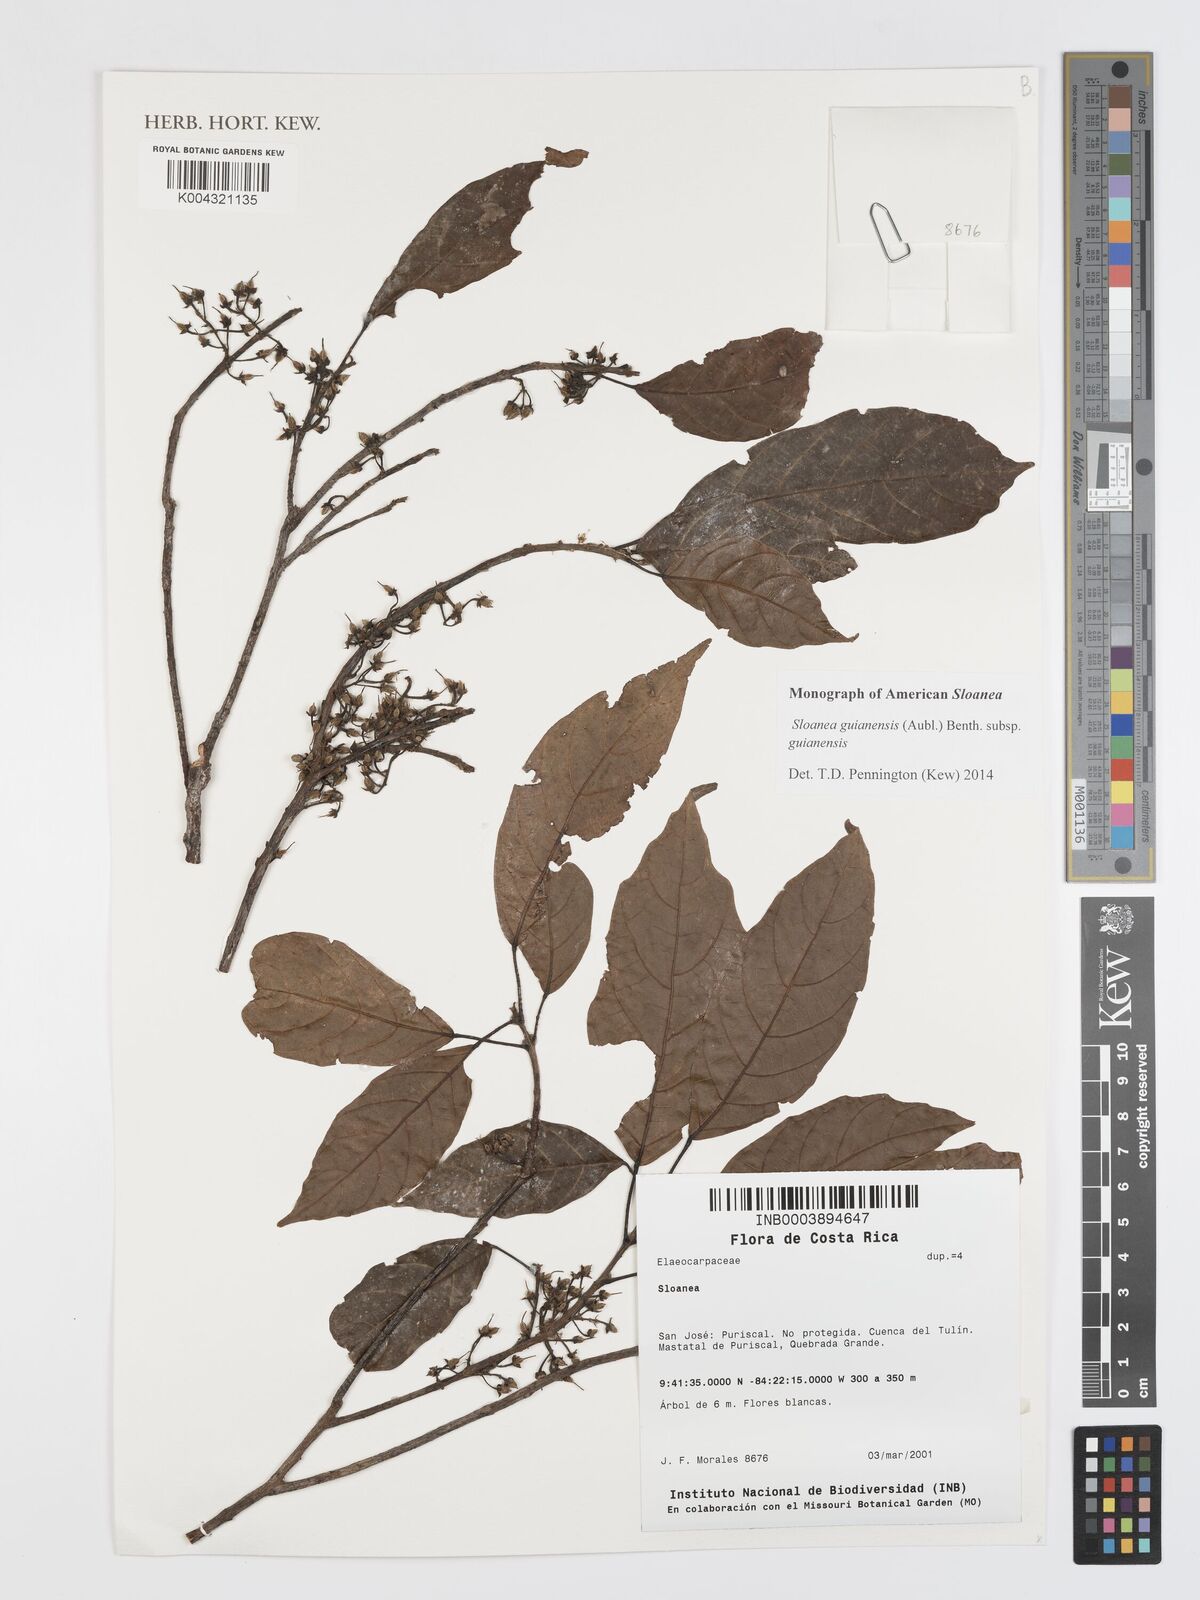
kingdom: Plantae
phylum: Tracheophyta
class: Magnoliopsida
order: Oxalidales
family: Elaeocarpaceae
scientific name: Elaeocarpaceae
